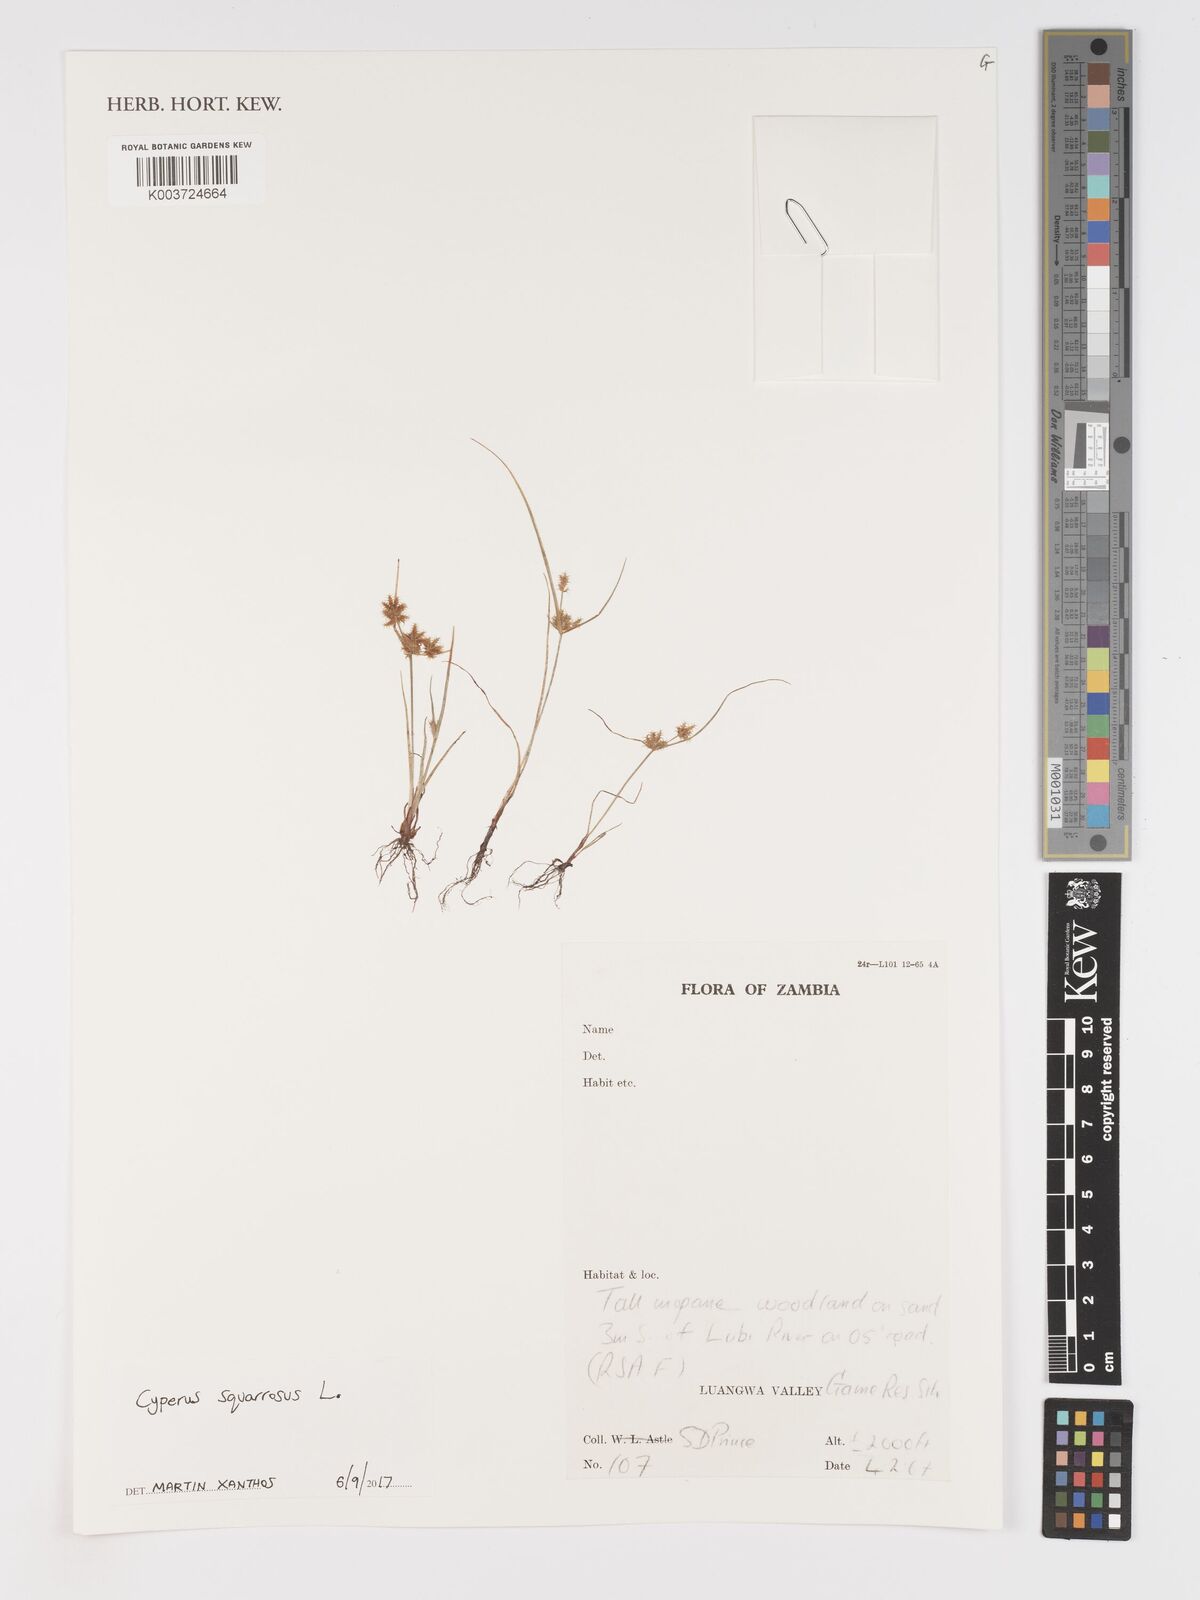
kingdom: Plantae
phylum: Tracheophyta
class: Liliopsida
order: Poales
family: Cyperaceae
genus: Cyperus
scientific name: Cyperus squarrosus
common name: Awned cyperus
